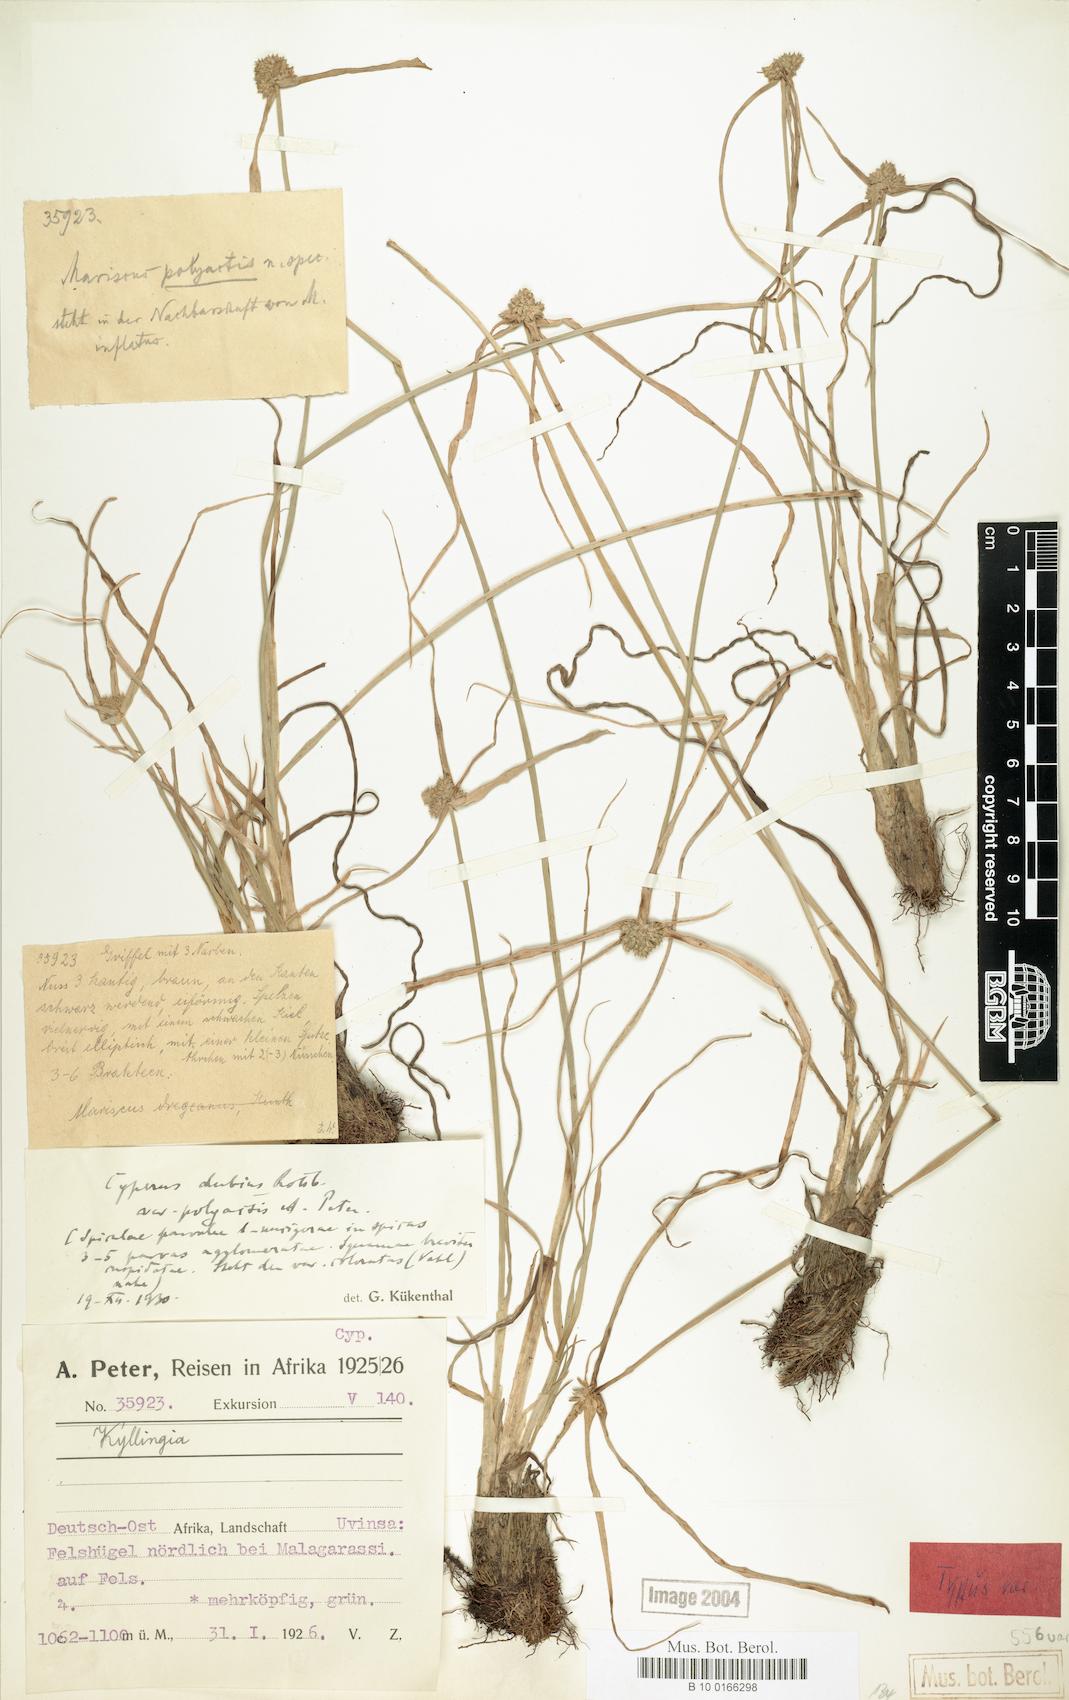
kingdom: Plantae
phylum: Tracheophyta
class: Liliopsida
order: Poales
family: Cyperaceae
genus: Cyperus
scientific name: Cyperus dubius
